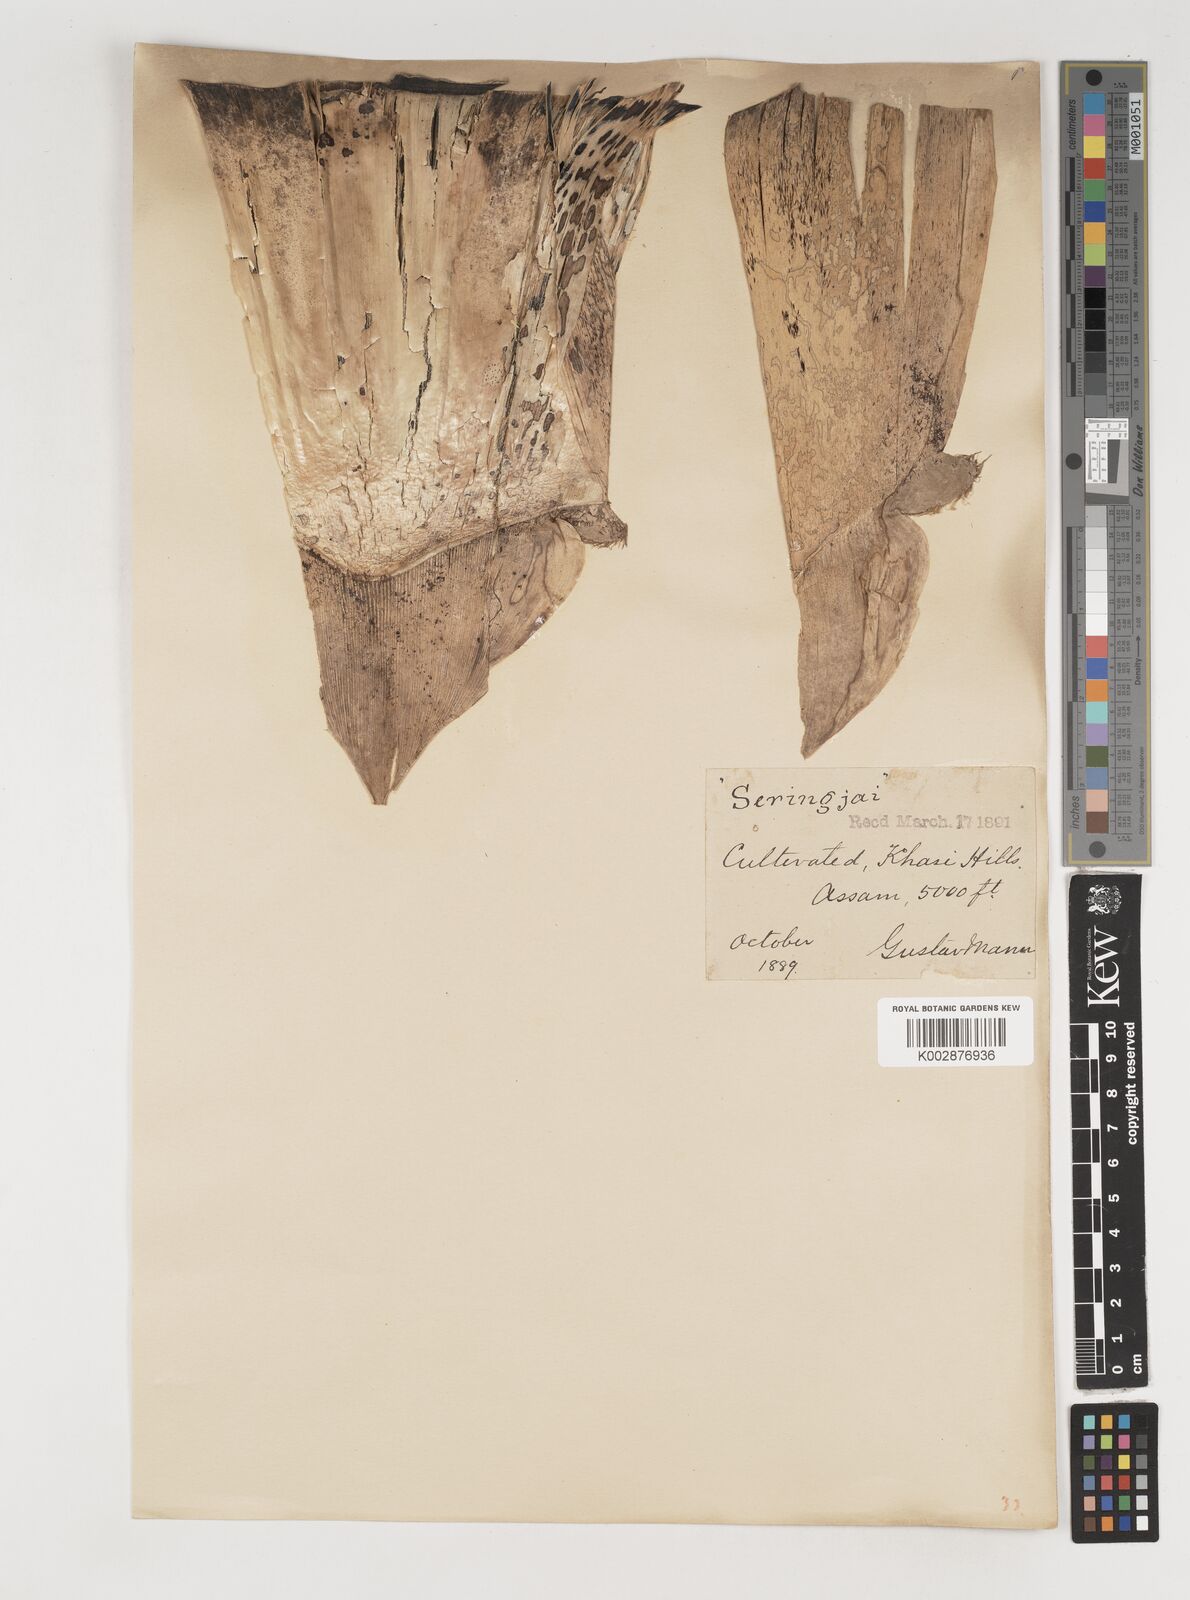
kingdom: Plantae
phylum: Tracheophyta
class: Liliopsida
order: Poales
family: Poaceae
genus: Bambusa
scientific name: Bambusa tulda
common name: Bengal bamboo
